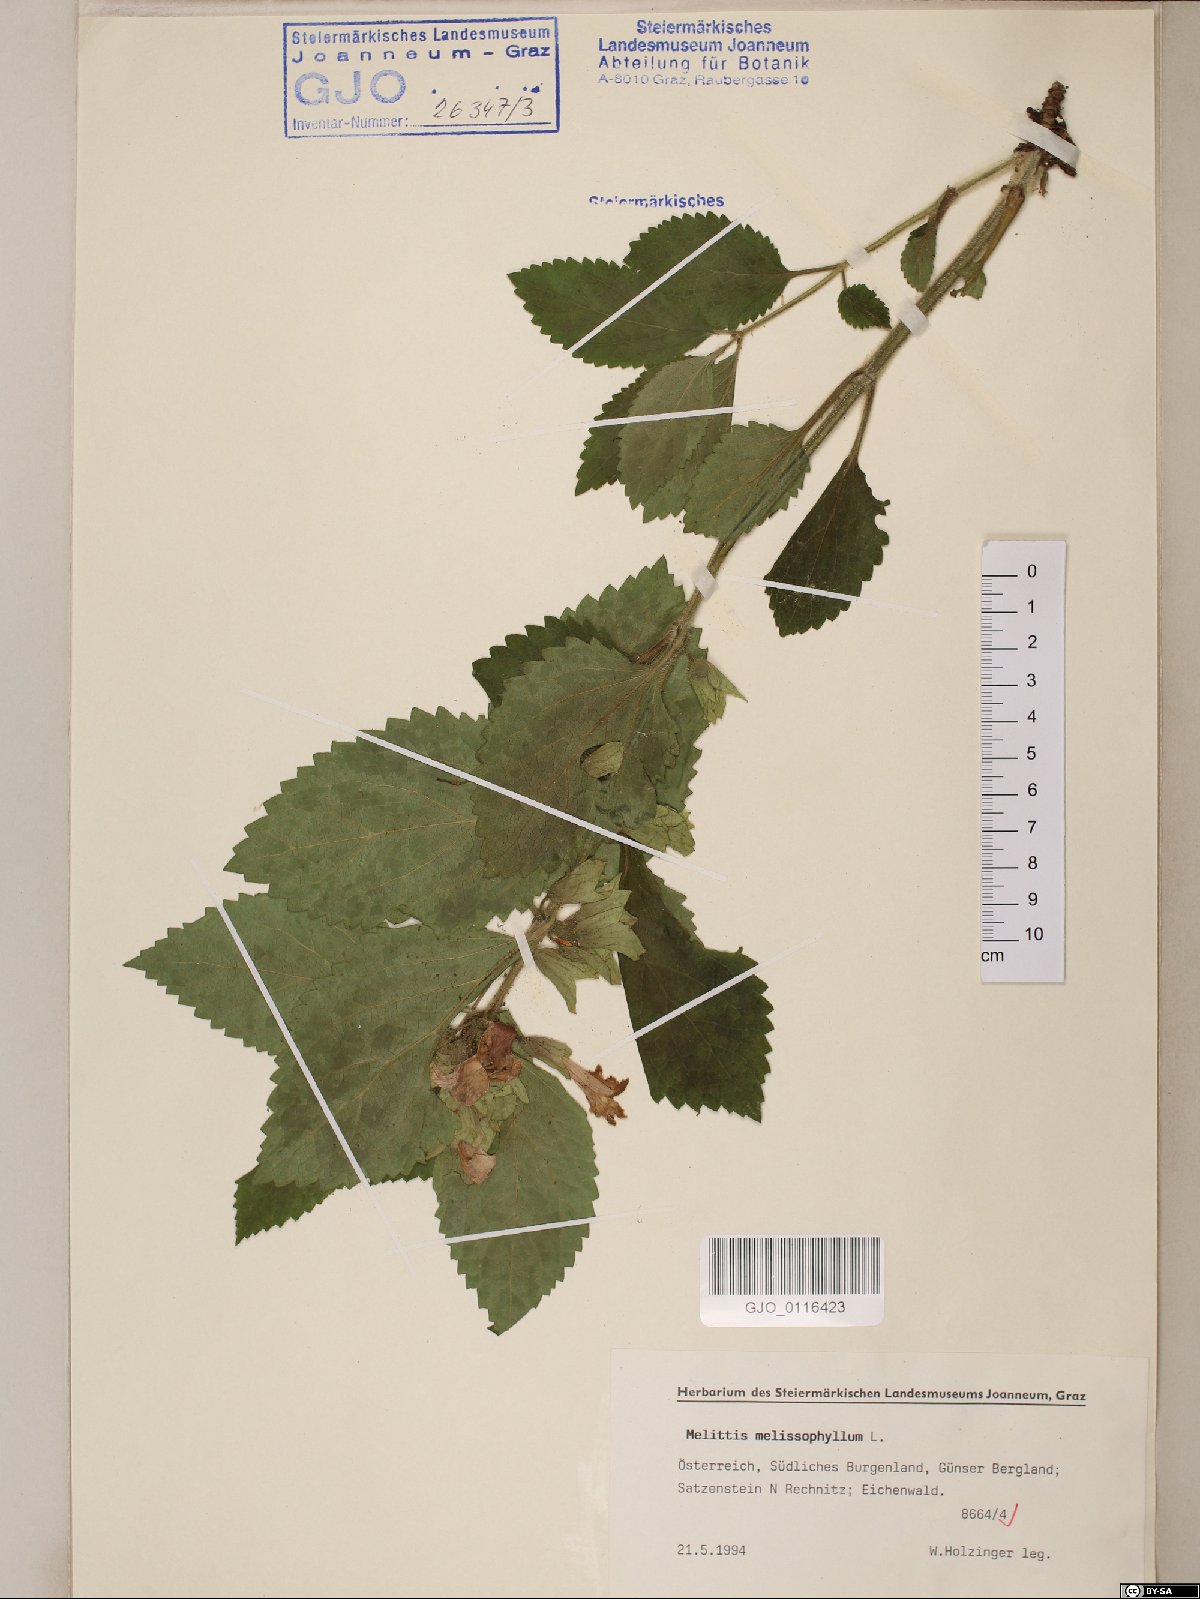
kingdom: Plantae
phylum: Tracheophyta
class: Magnoliopsida
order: Lamiales
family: Lamiaceae
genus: Melittis
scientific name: Melittis melissophyllum
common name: Bastard balm
